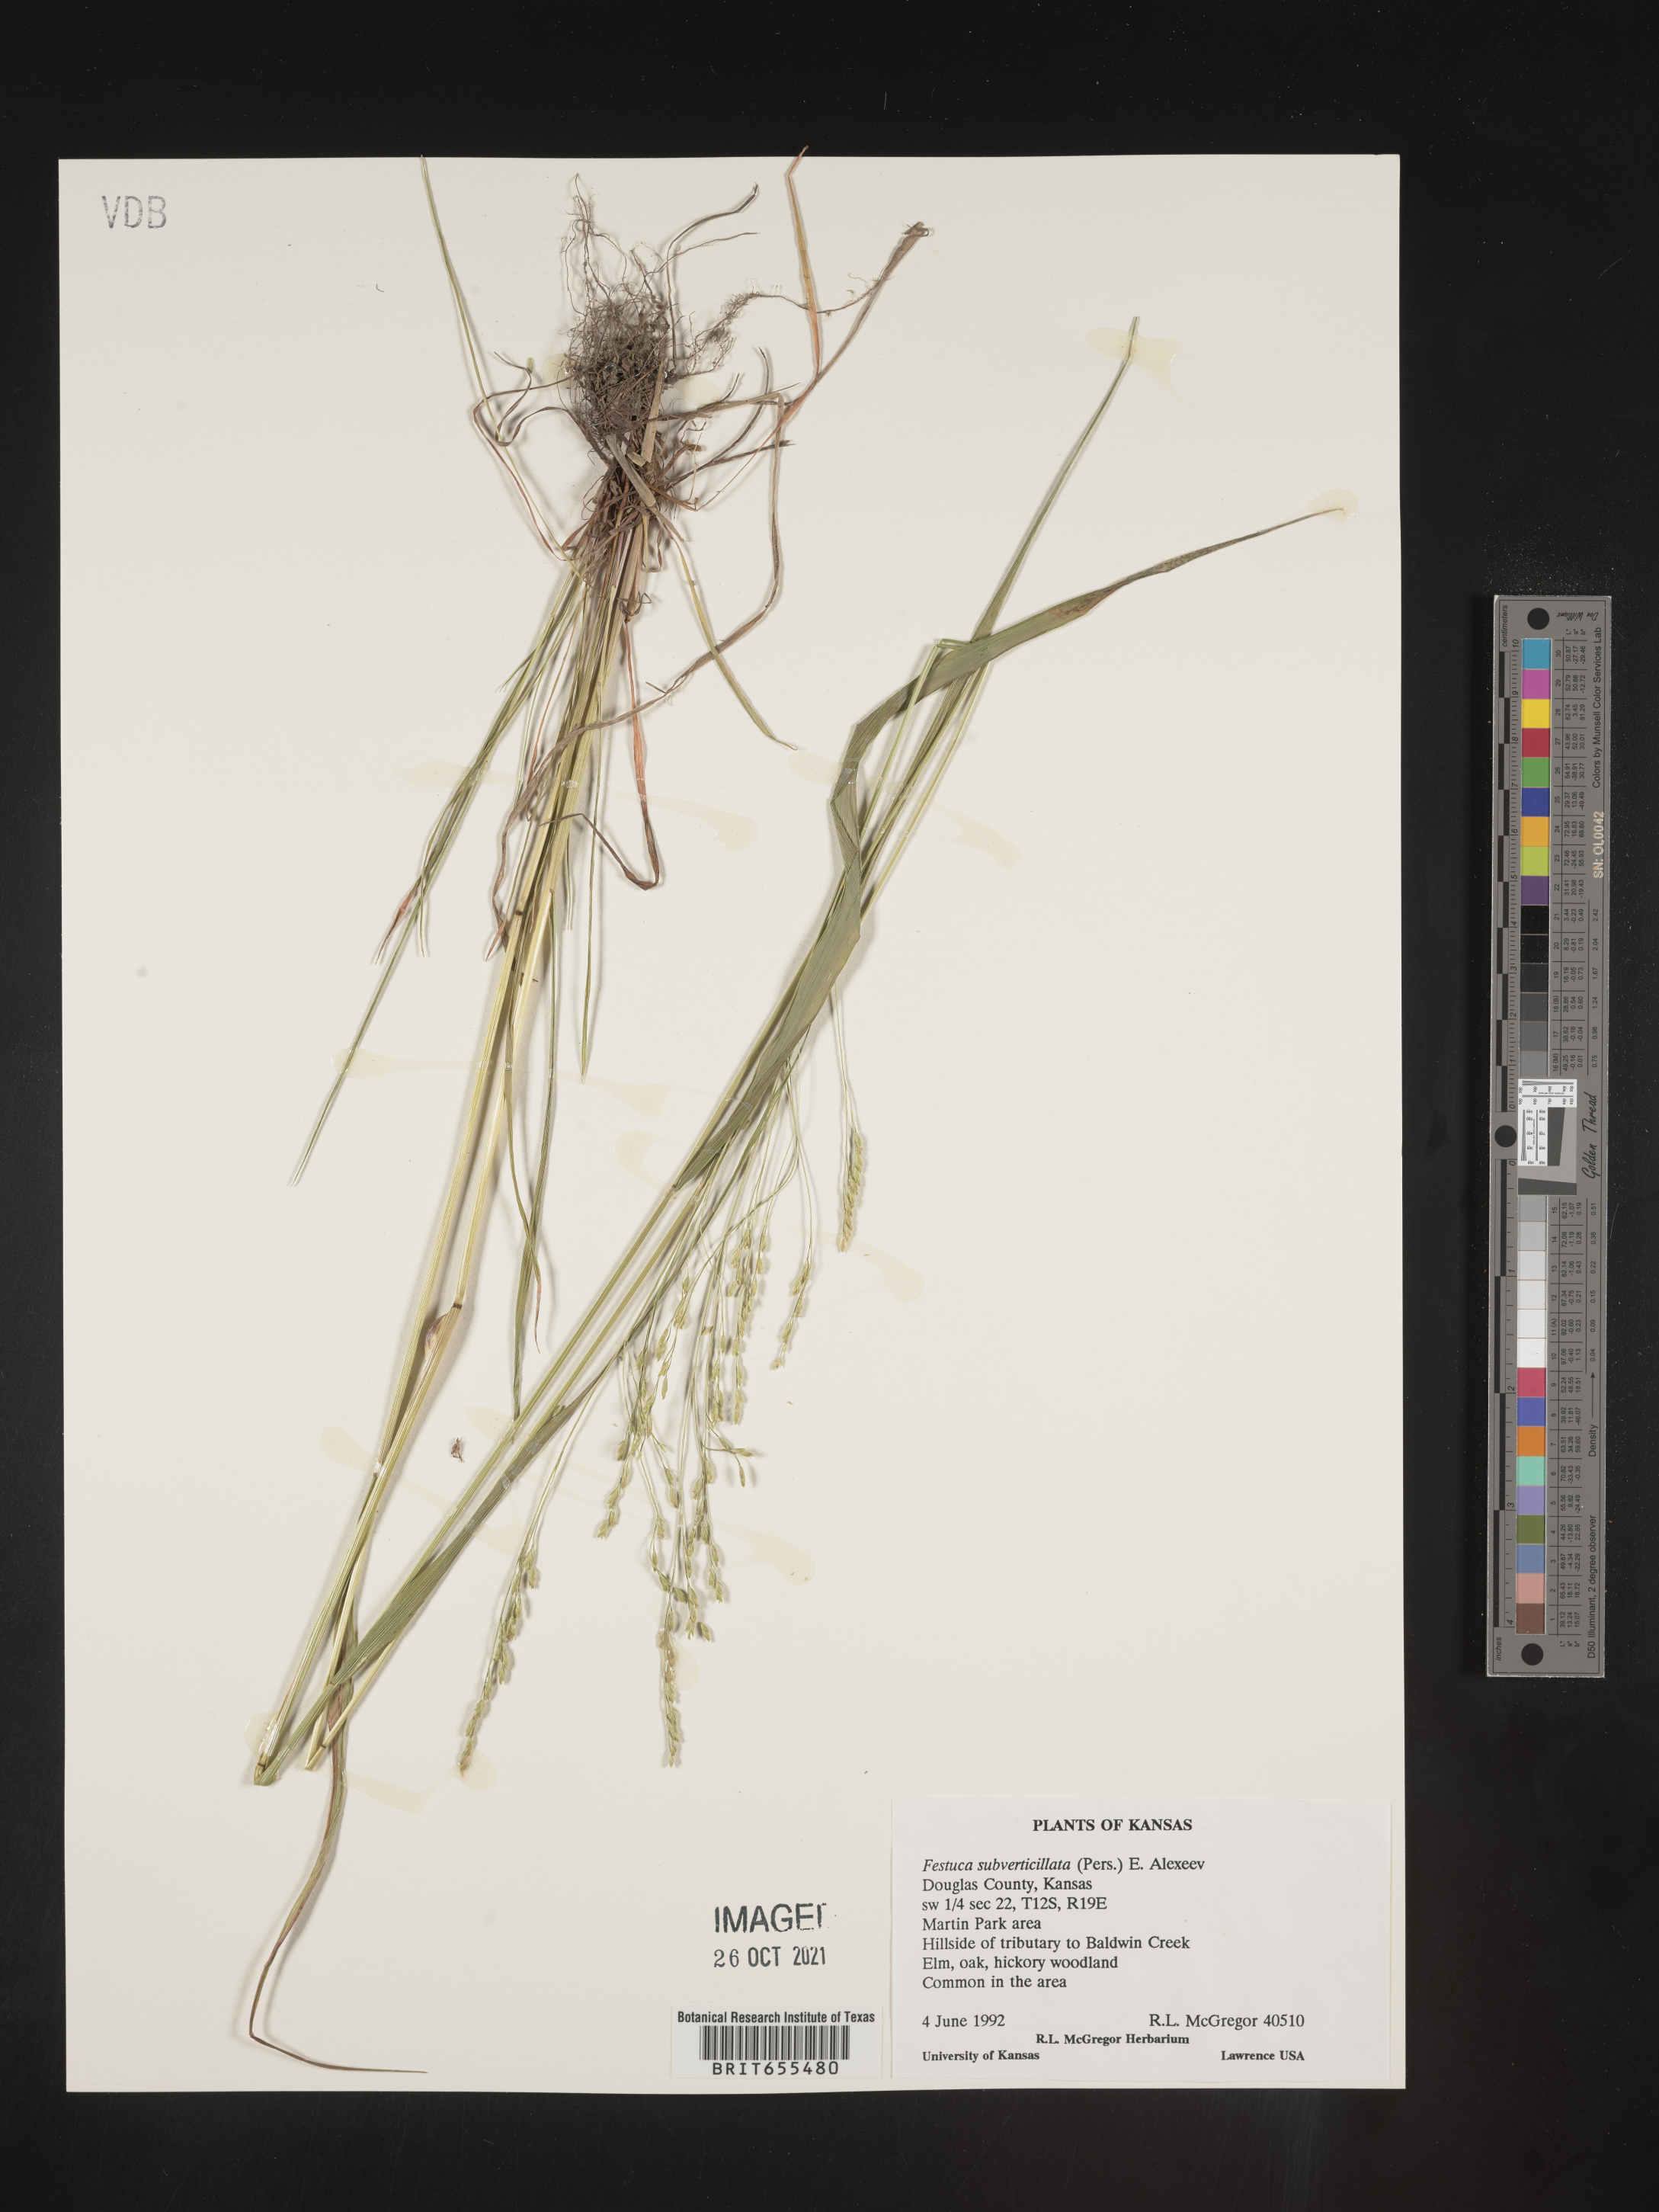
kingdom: Plantae
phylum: Tracheophyta
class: Liliopsida
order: Poales
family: Poaceae
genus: Festuca
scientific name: Festuca
